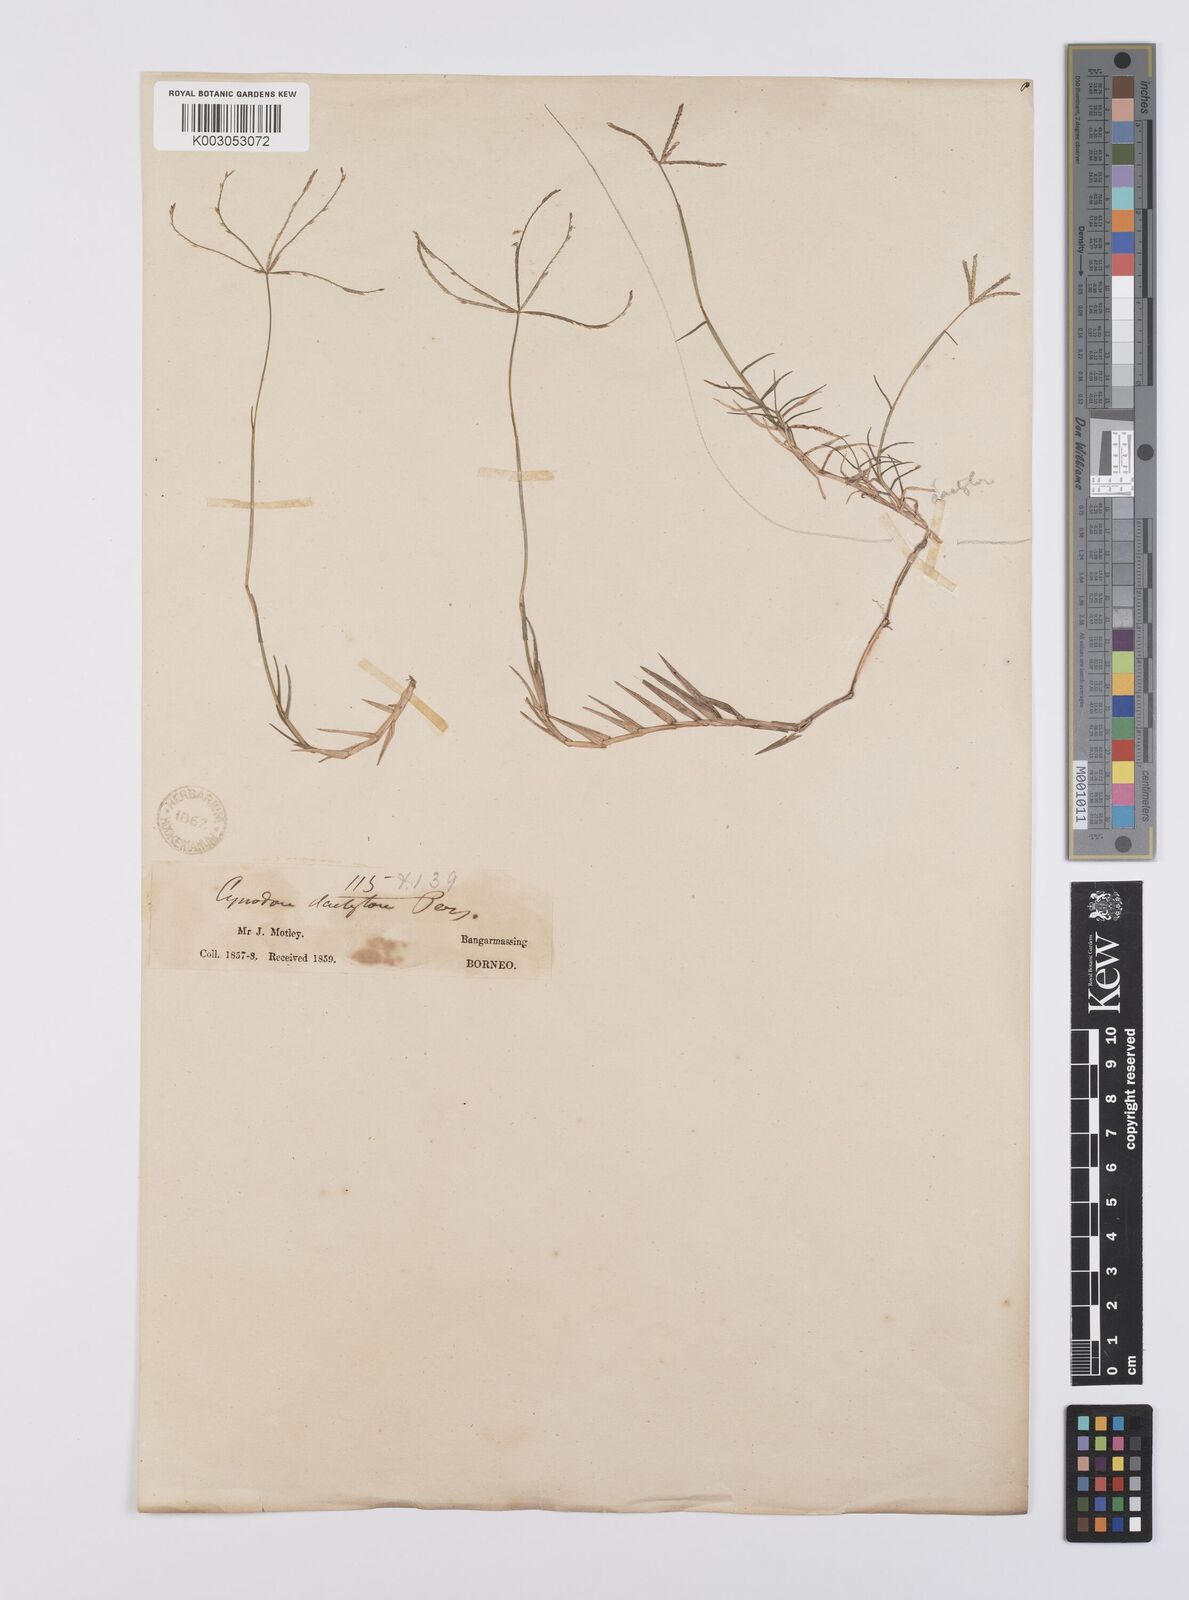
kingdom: Plantae
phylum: Tracheophyta
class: Liliopsida
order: Poales
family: Poaceae
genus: Cynodon
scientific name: Cynodon radiatus
